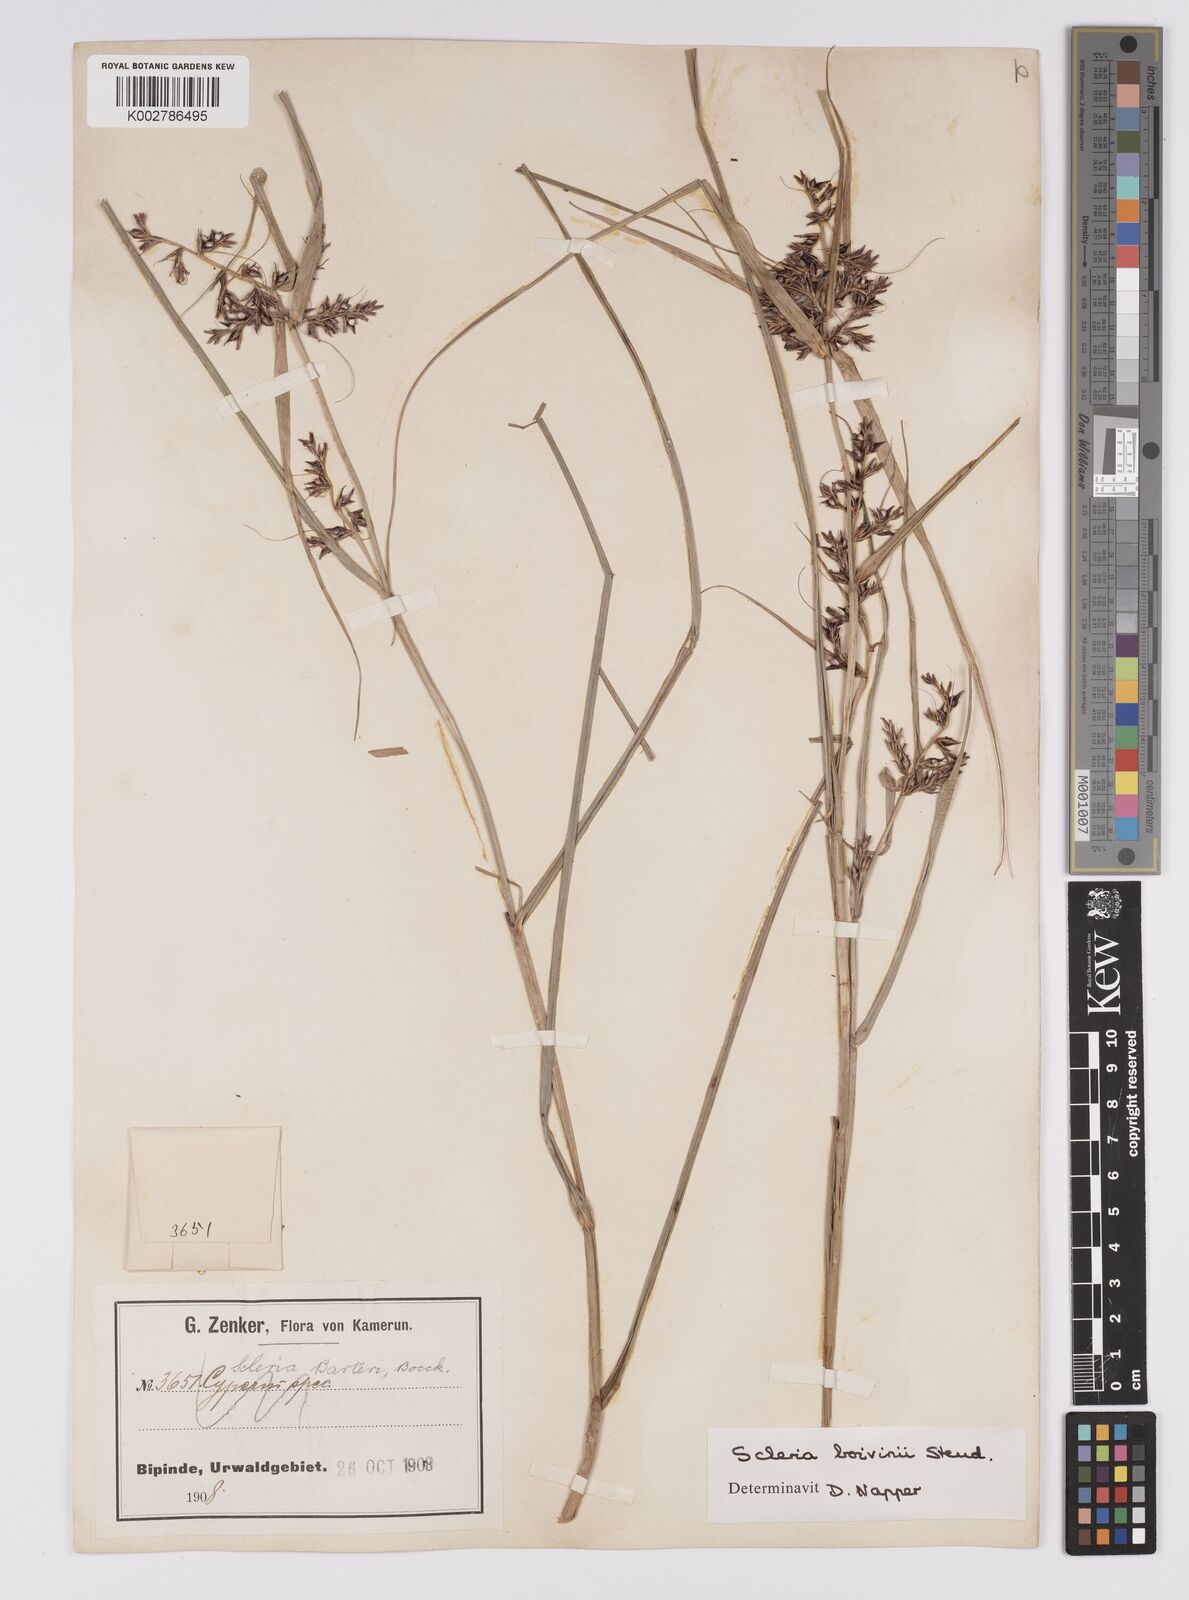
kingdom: Plantae
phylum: Tracheophyta
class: Liliopsida
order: Poales
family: Cyperaceae
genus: Scleria
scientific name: Scleria boivinii
